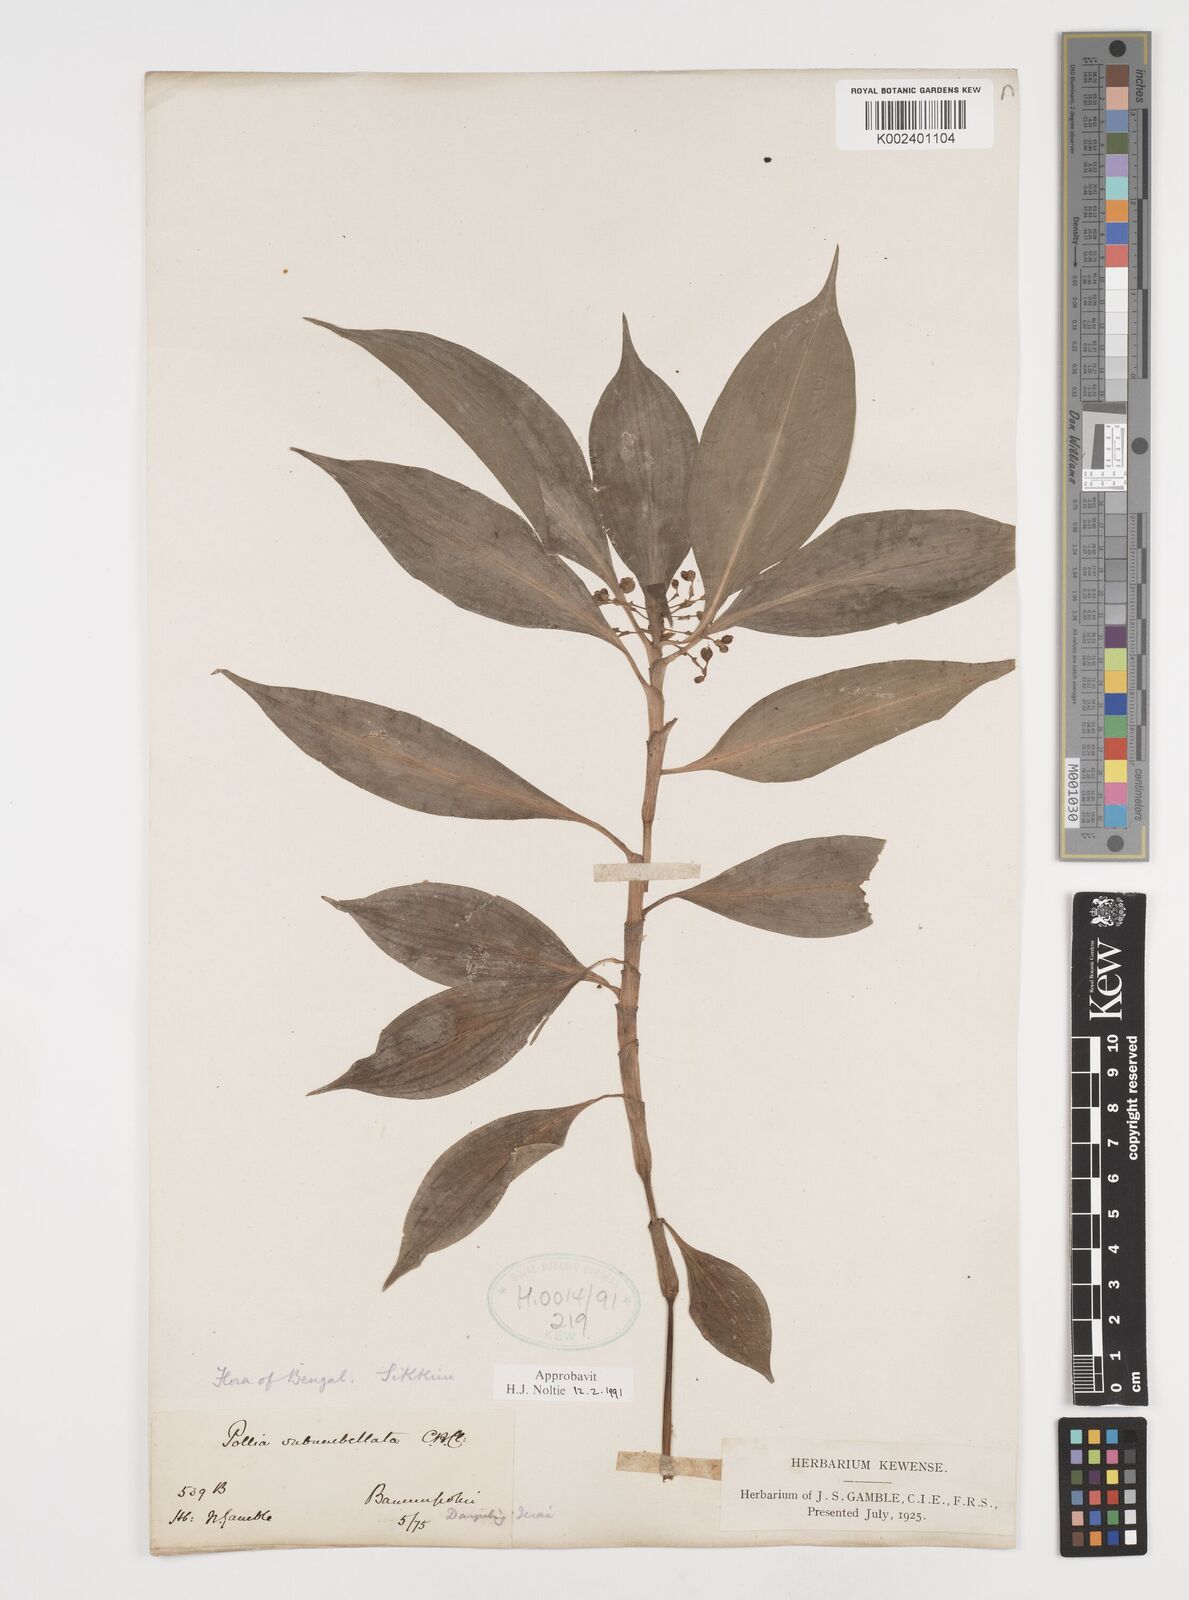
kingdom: Plantae
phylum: Tracheophyta
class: Liliopsida
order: Commelinales
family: Commelinaceae
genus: Pollia
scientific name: Pollia subumbellata
